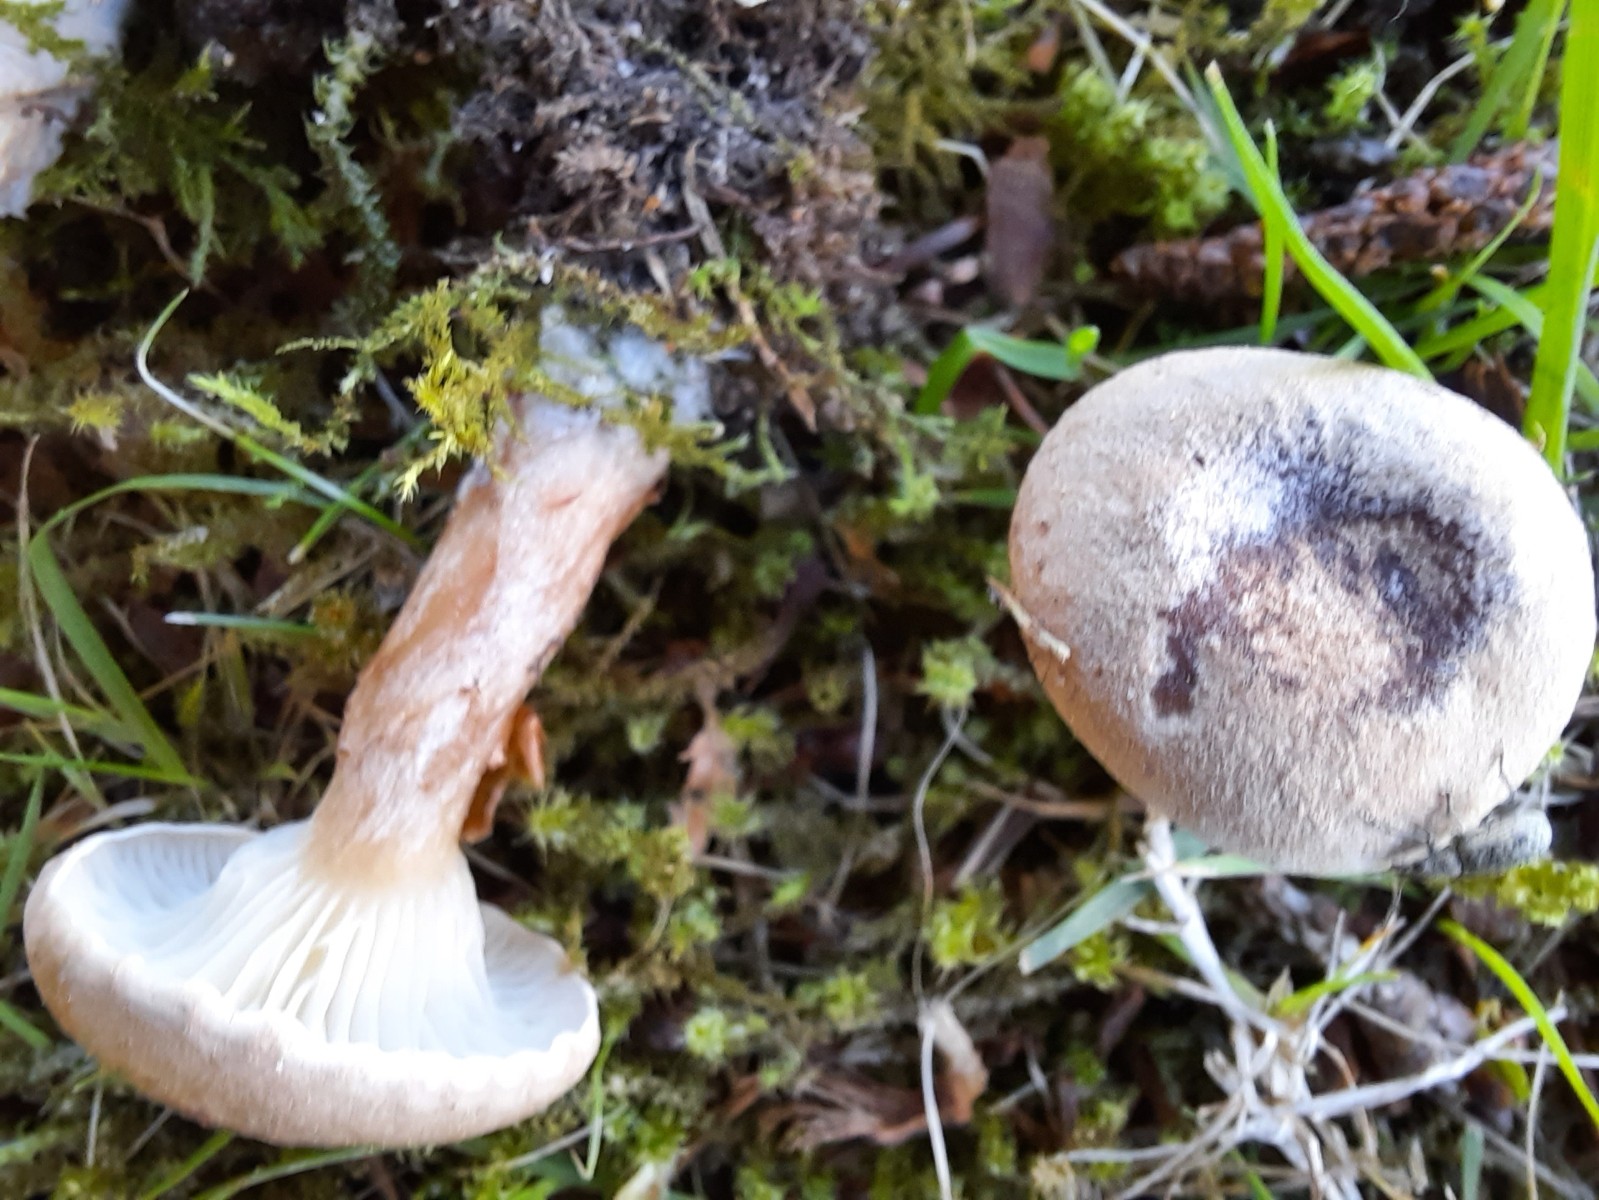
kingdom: Fungi
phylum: Basidiomycota
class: Agaricomycetes
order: Agaricales
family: Tricholomataceae
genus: Clitocybe
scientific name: Clitocybe costata
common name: brunstokket tragthat
